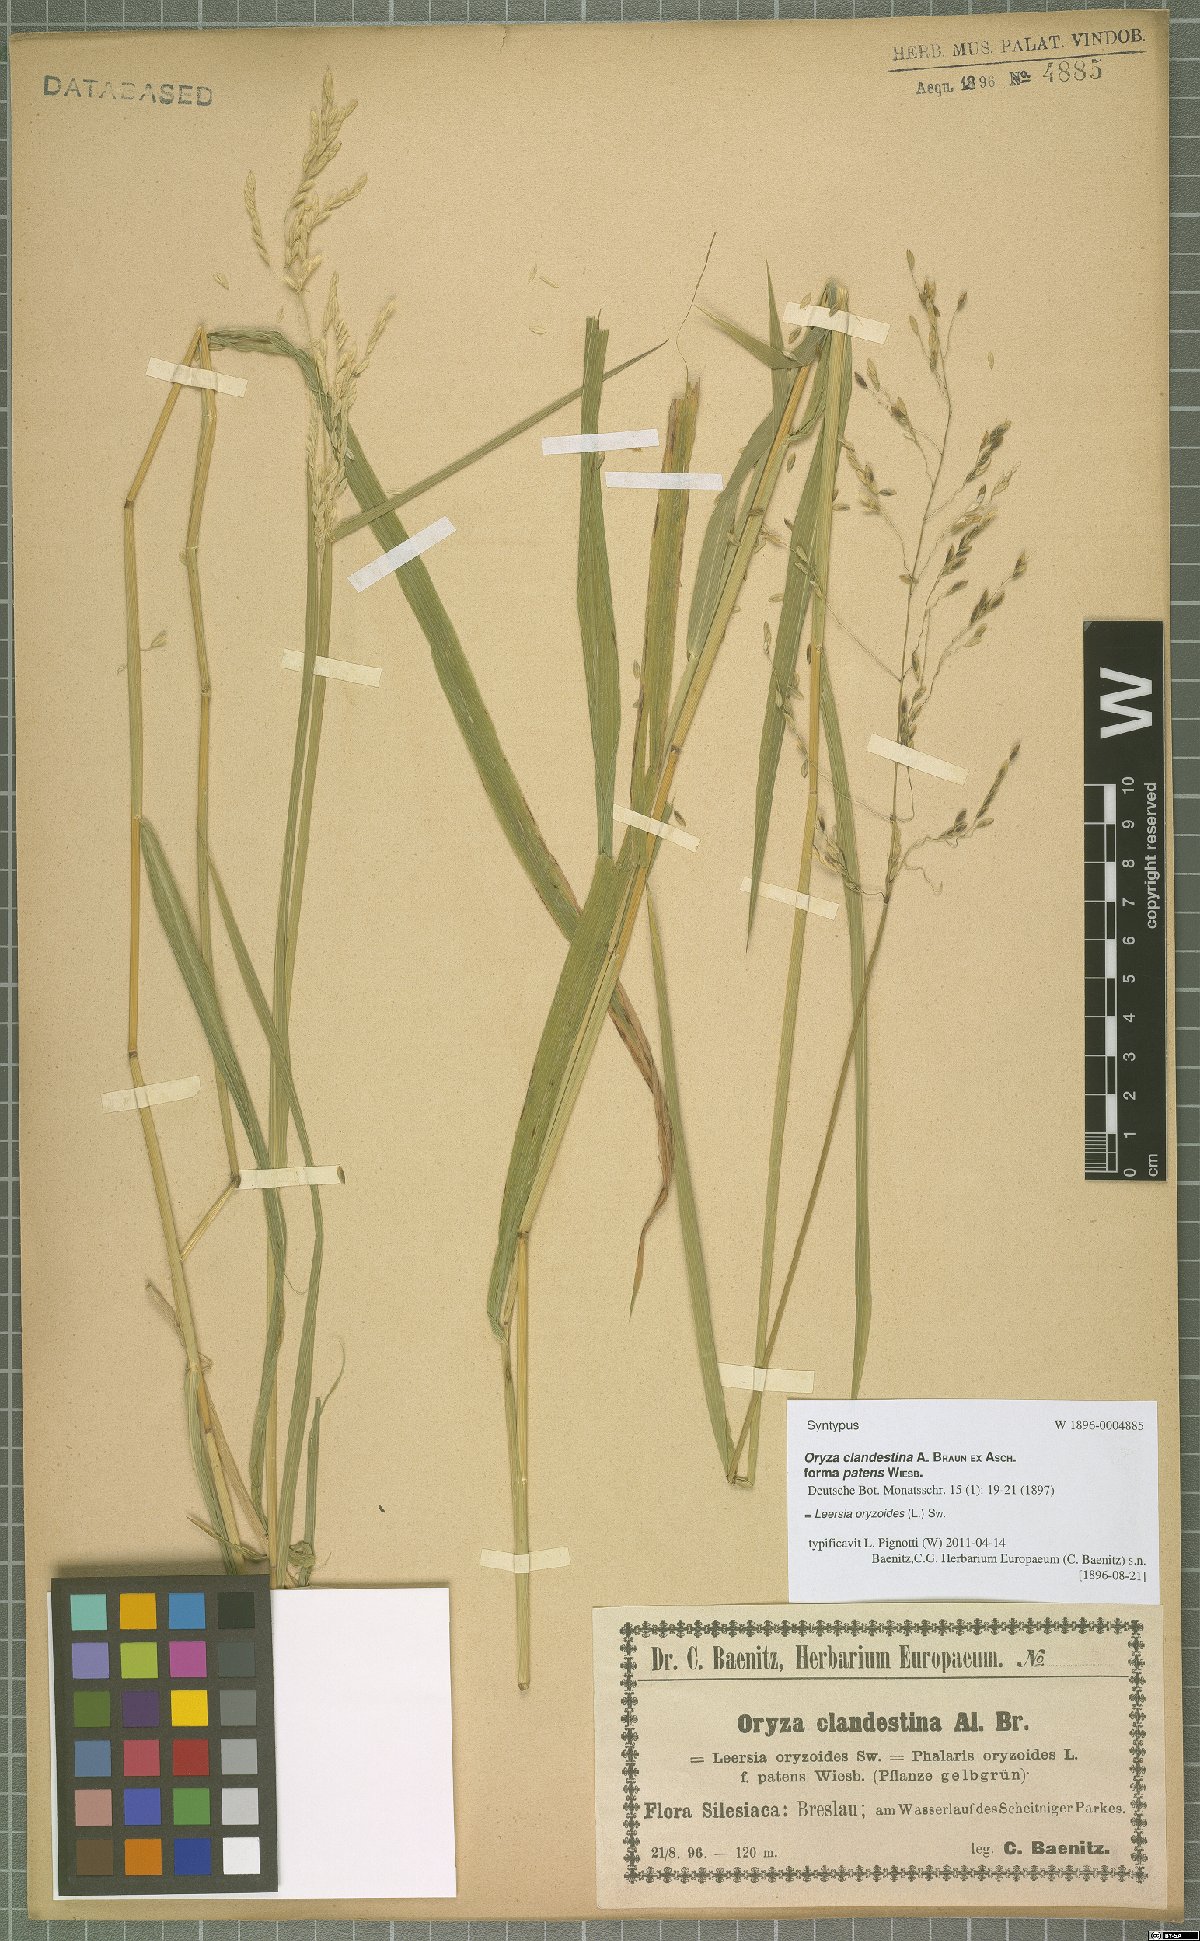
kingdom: Plantae
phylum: Tracheophyta
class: Liliopsida
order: Poales
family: Poaceae
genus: Leersia
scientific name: Leersia oryzoides
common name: Cut-grass
